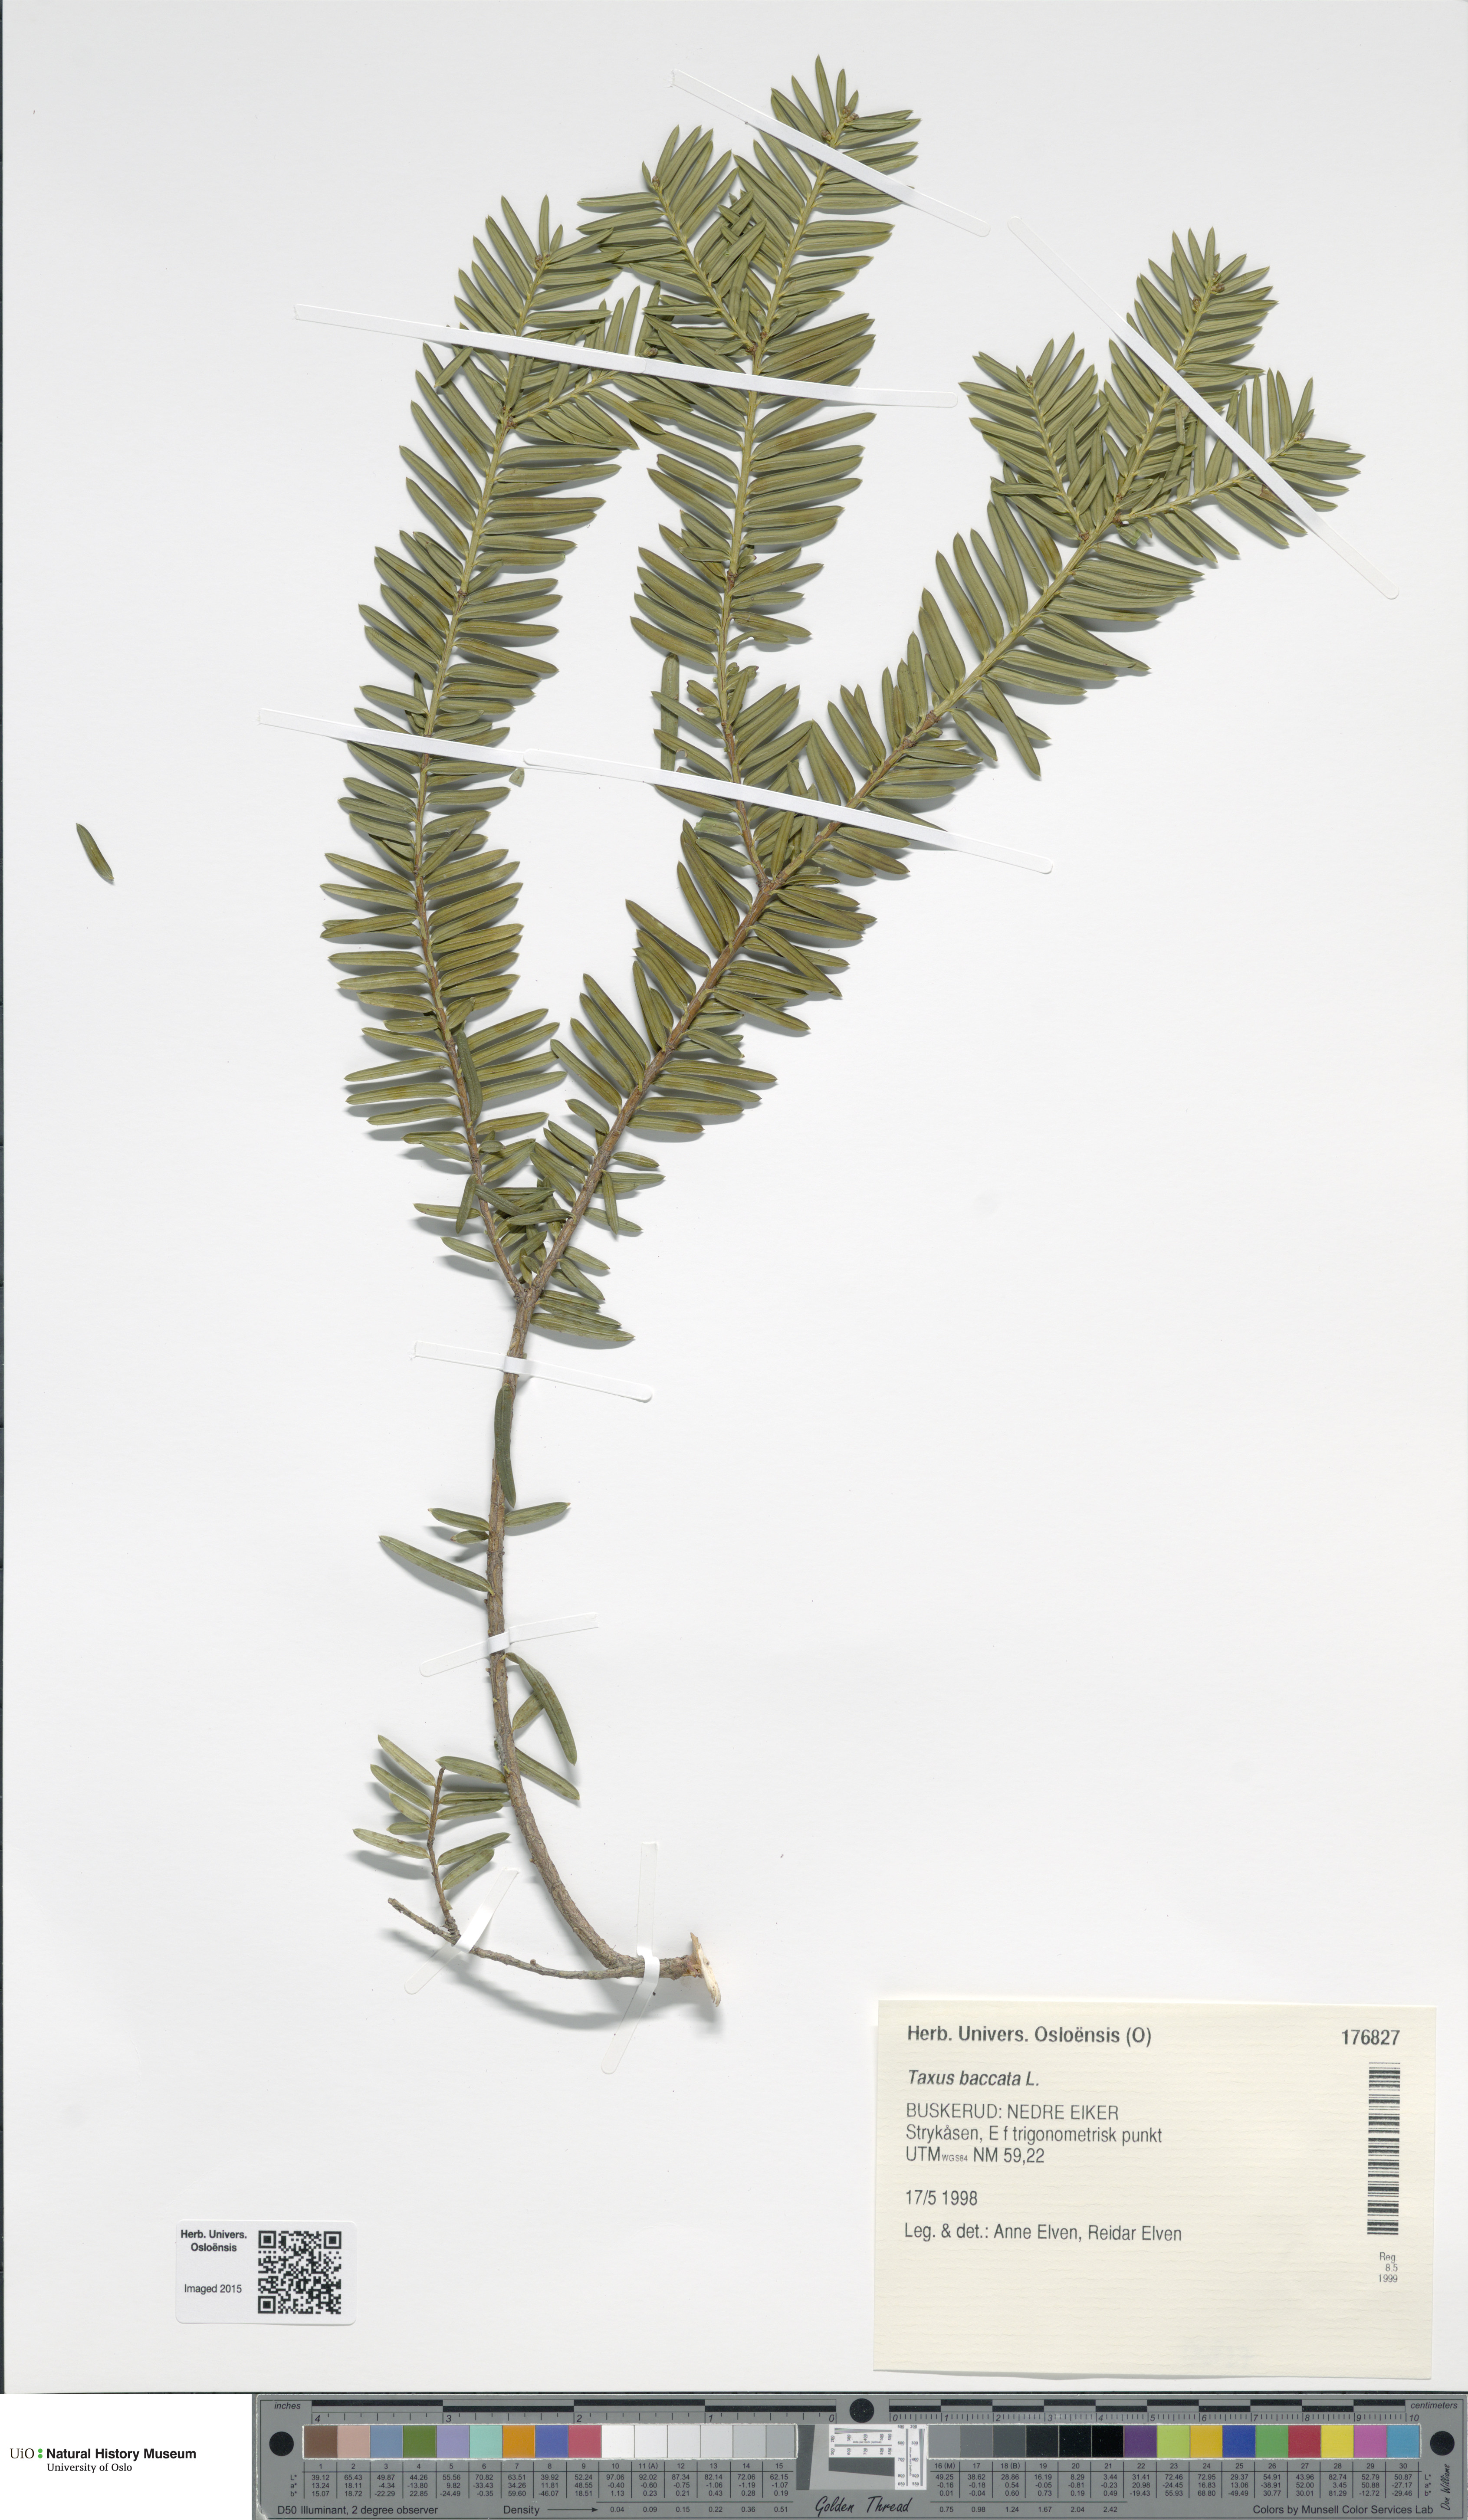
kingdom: Plantae
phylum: Tracheophyta
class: Pinopsida
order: Pinales
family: Taxaceae
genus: Taxus
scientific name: Taxus baccata
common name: Yew
